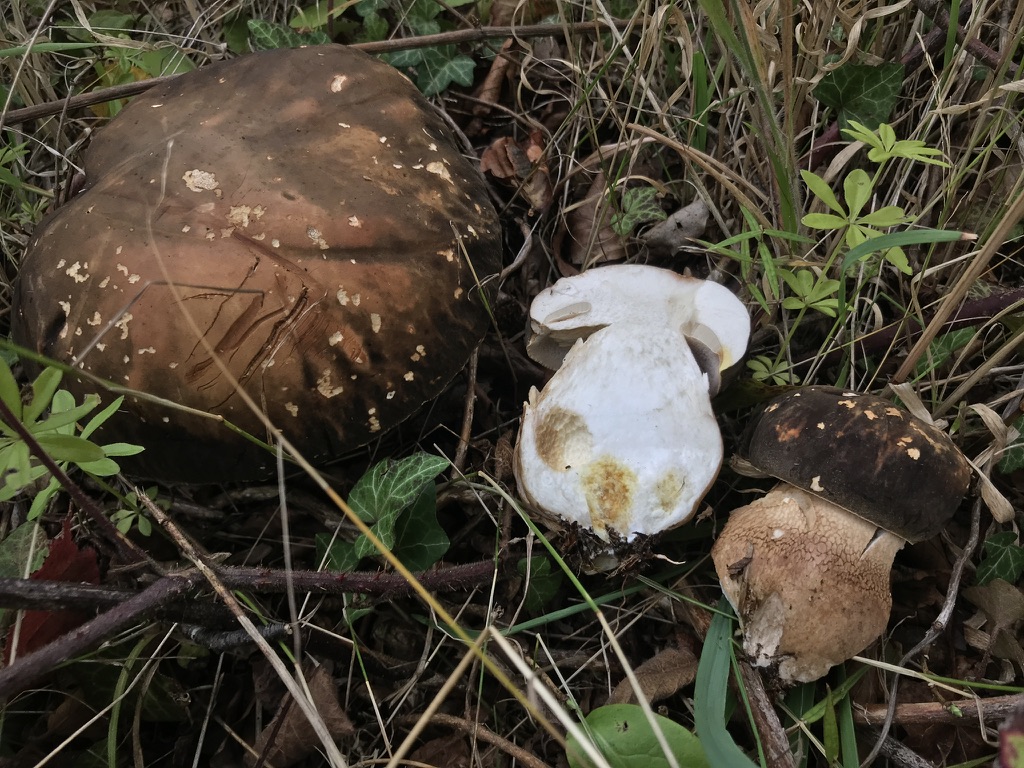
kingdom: Fungi
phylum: Basidiomycota
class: Agaricomycetes
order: Boletales
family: Boletaceae
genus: Boletus
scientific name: Boletus edulis
